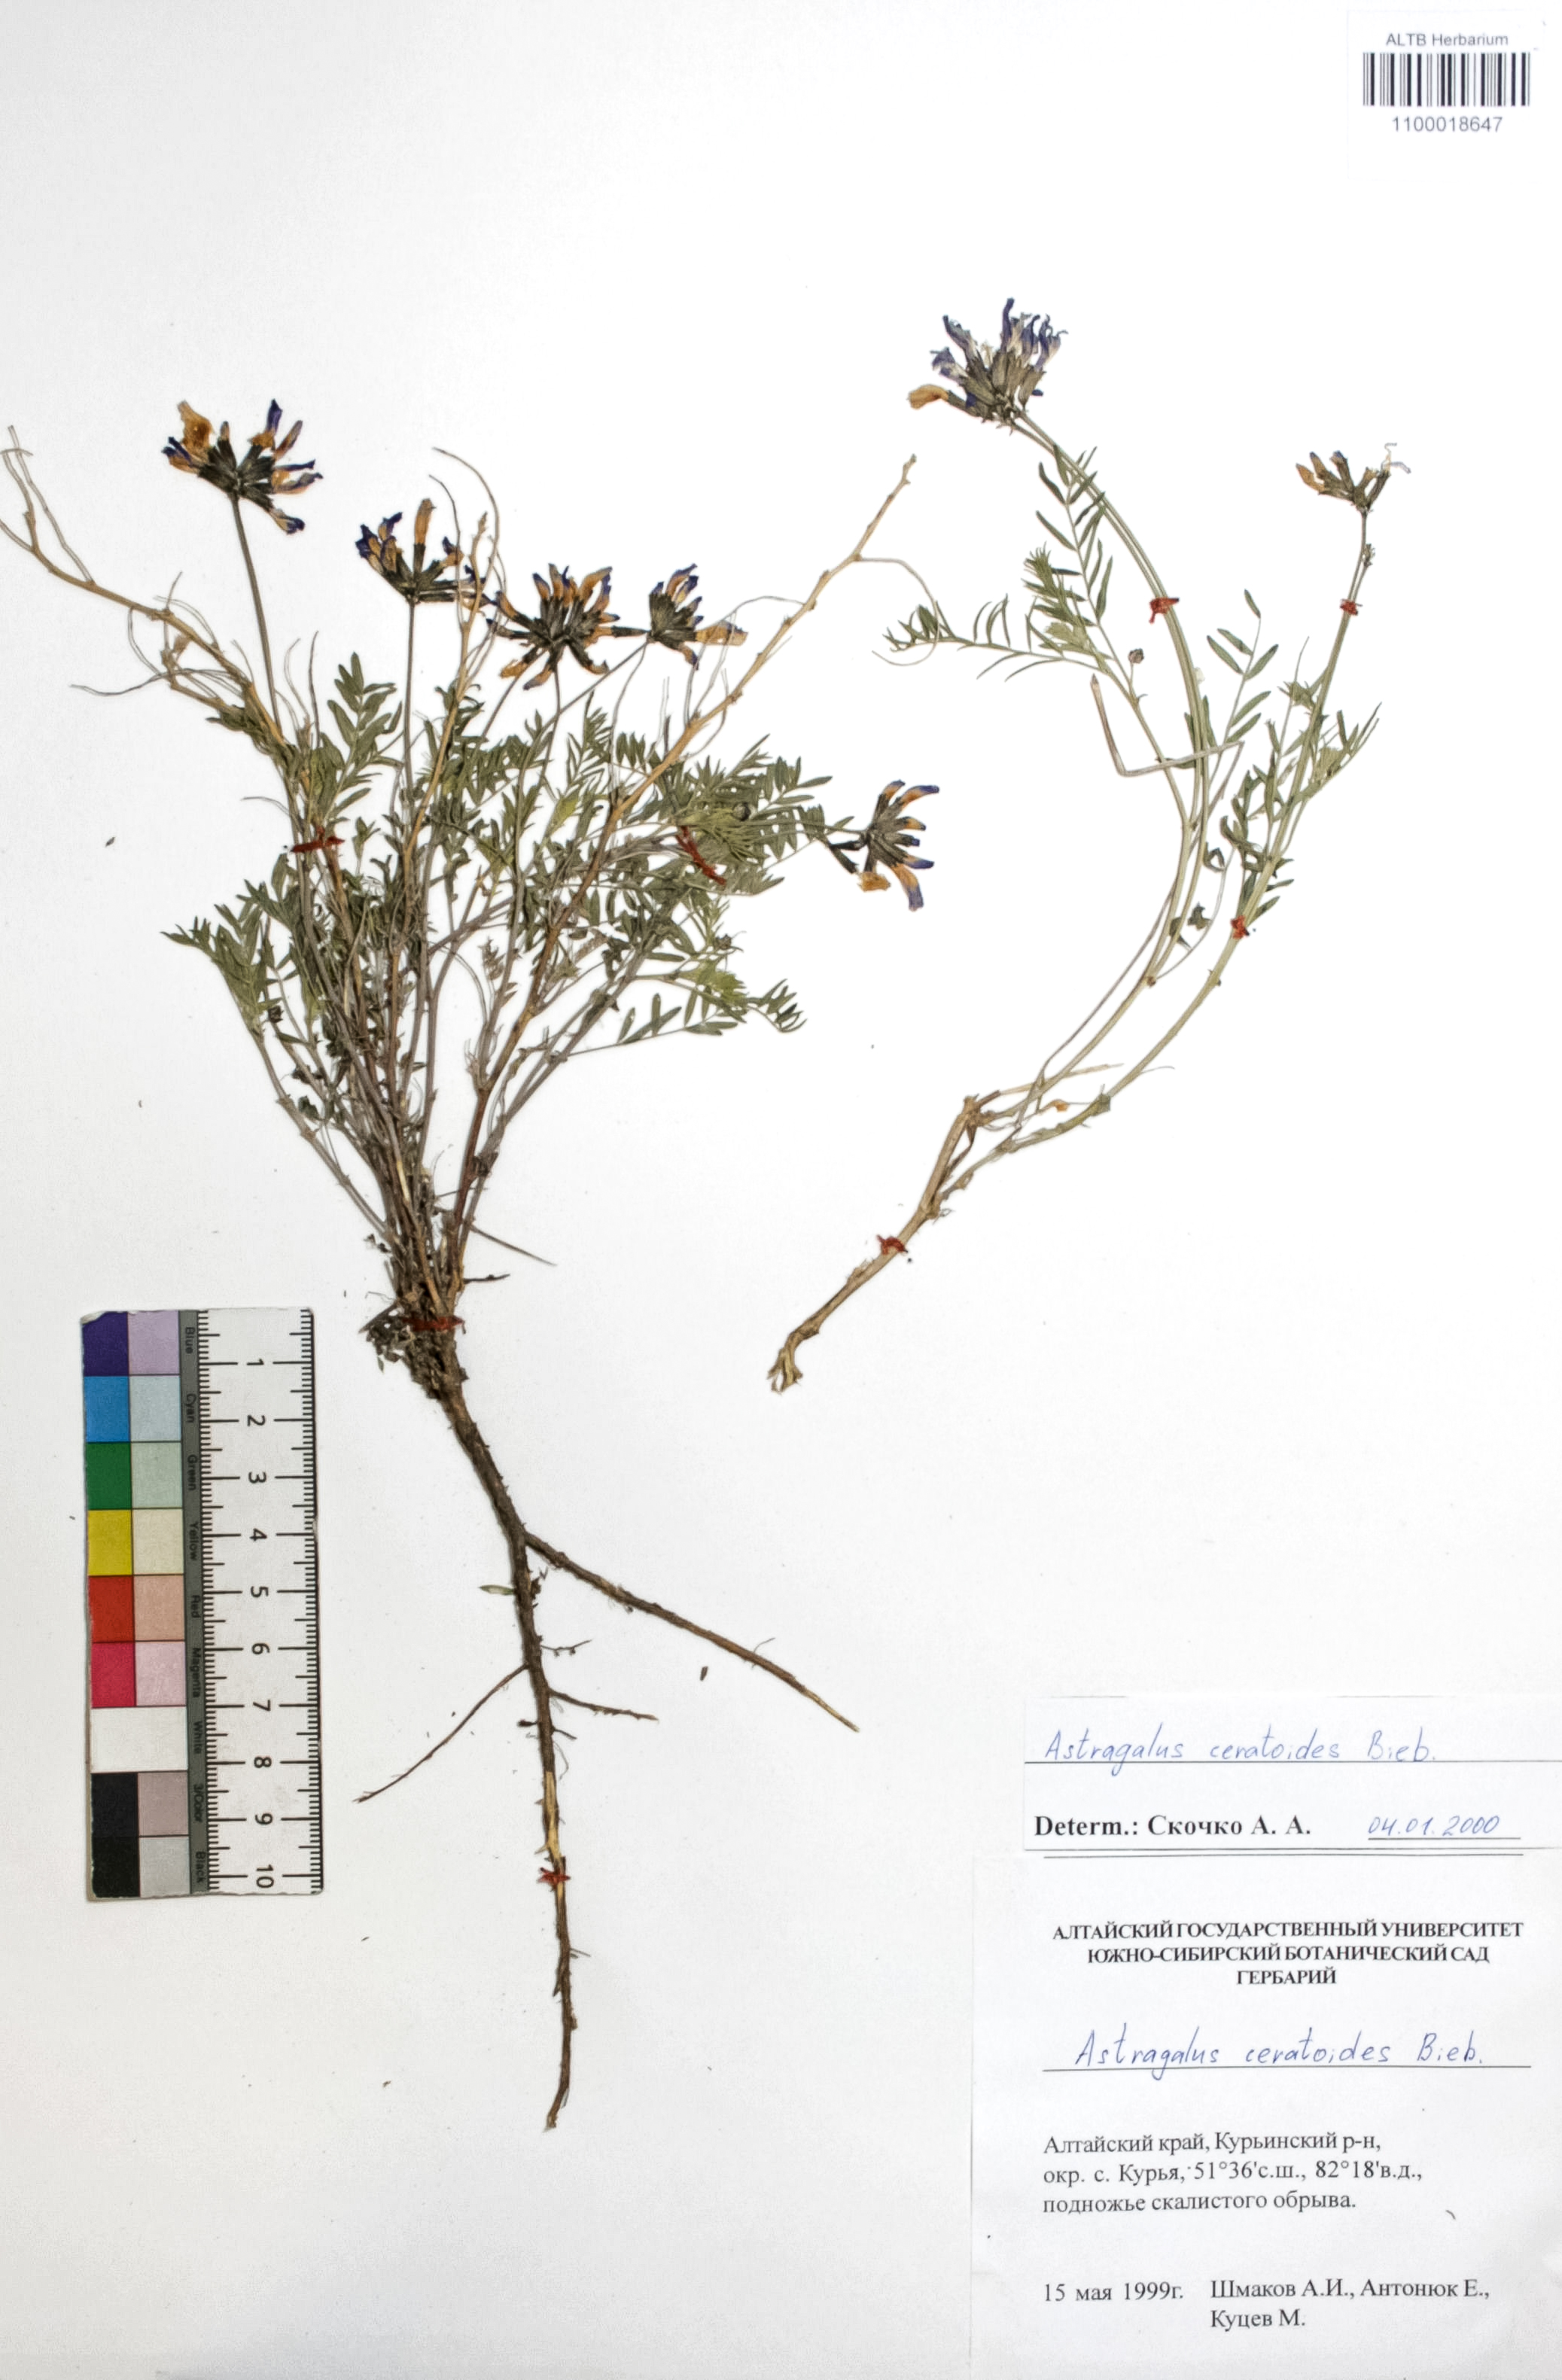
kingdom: Plantae
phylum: Tracheophyta
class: Magnoliopsida
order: Fabales
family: Fabaceae
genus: Astragalus
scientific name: Astragalus ceratoides
